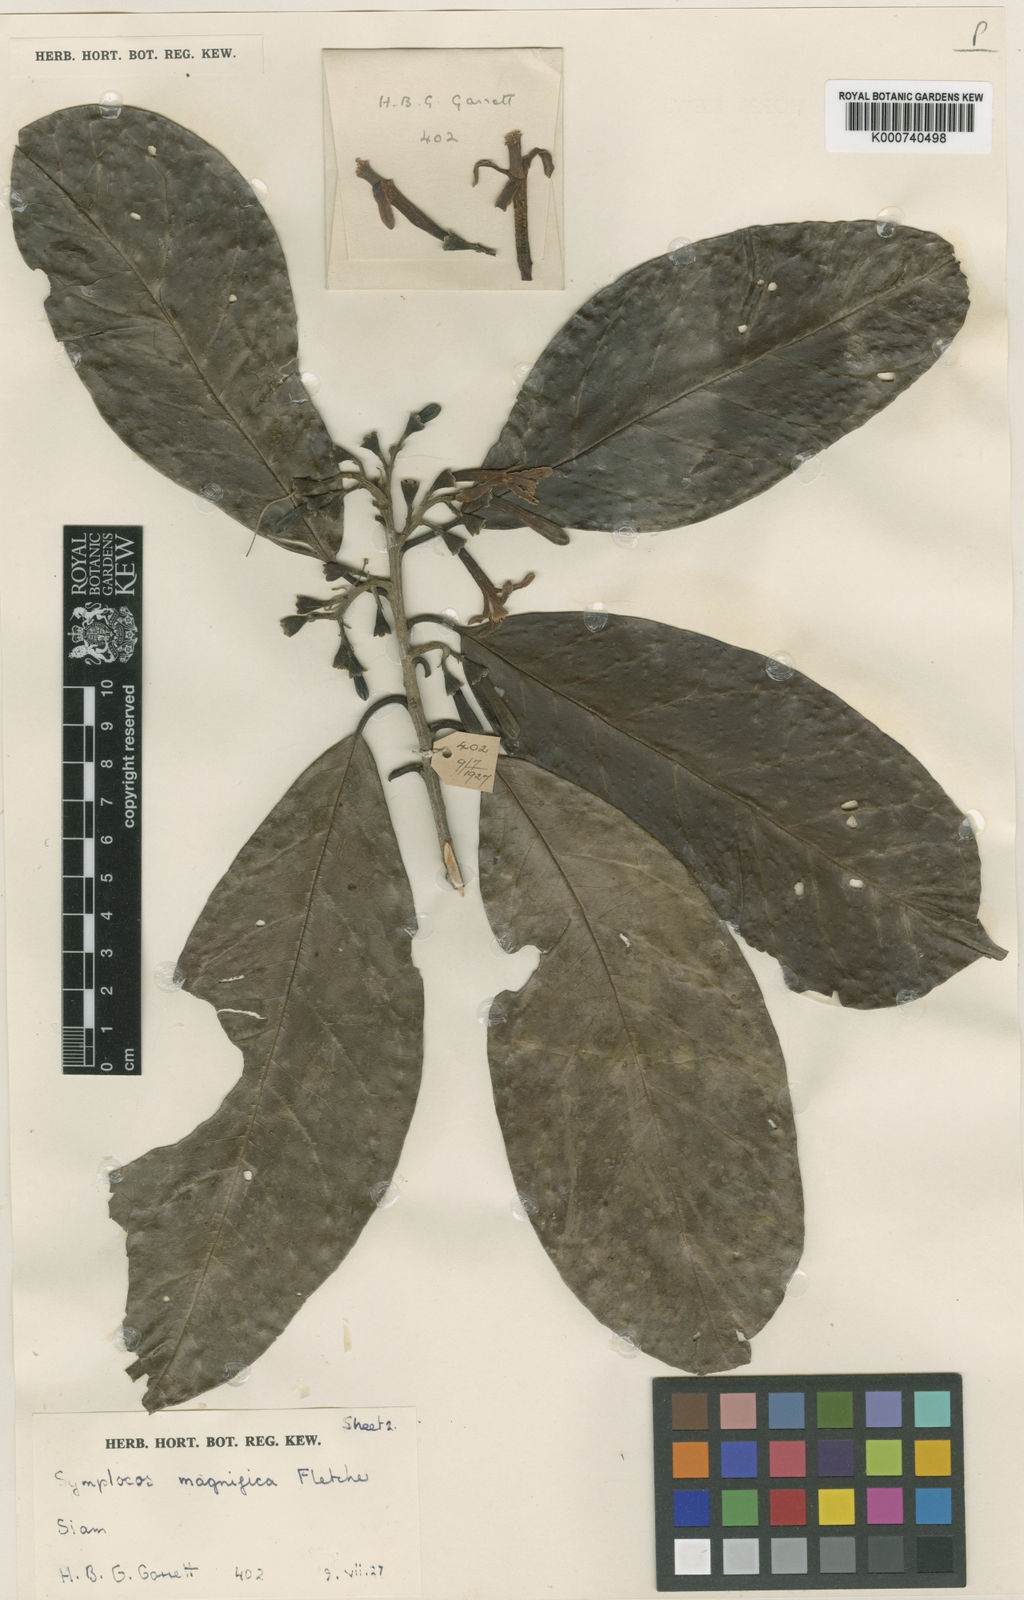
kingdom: Plantae
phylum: Tracheophyta
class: Magnoliopsida
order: Ericales
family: Symplocaceae
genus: Symplocos
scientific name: Symplocos henschelii
